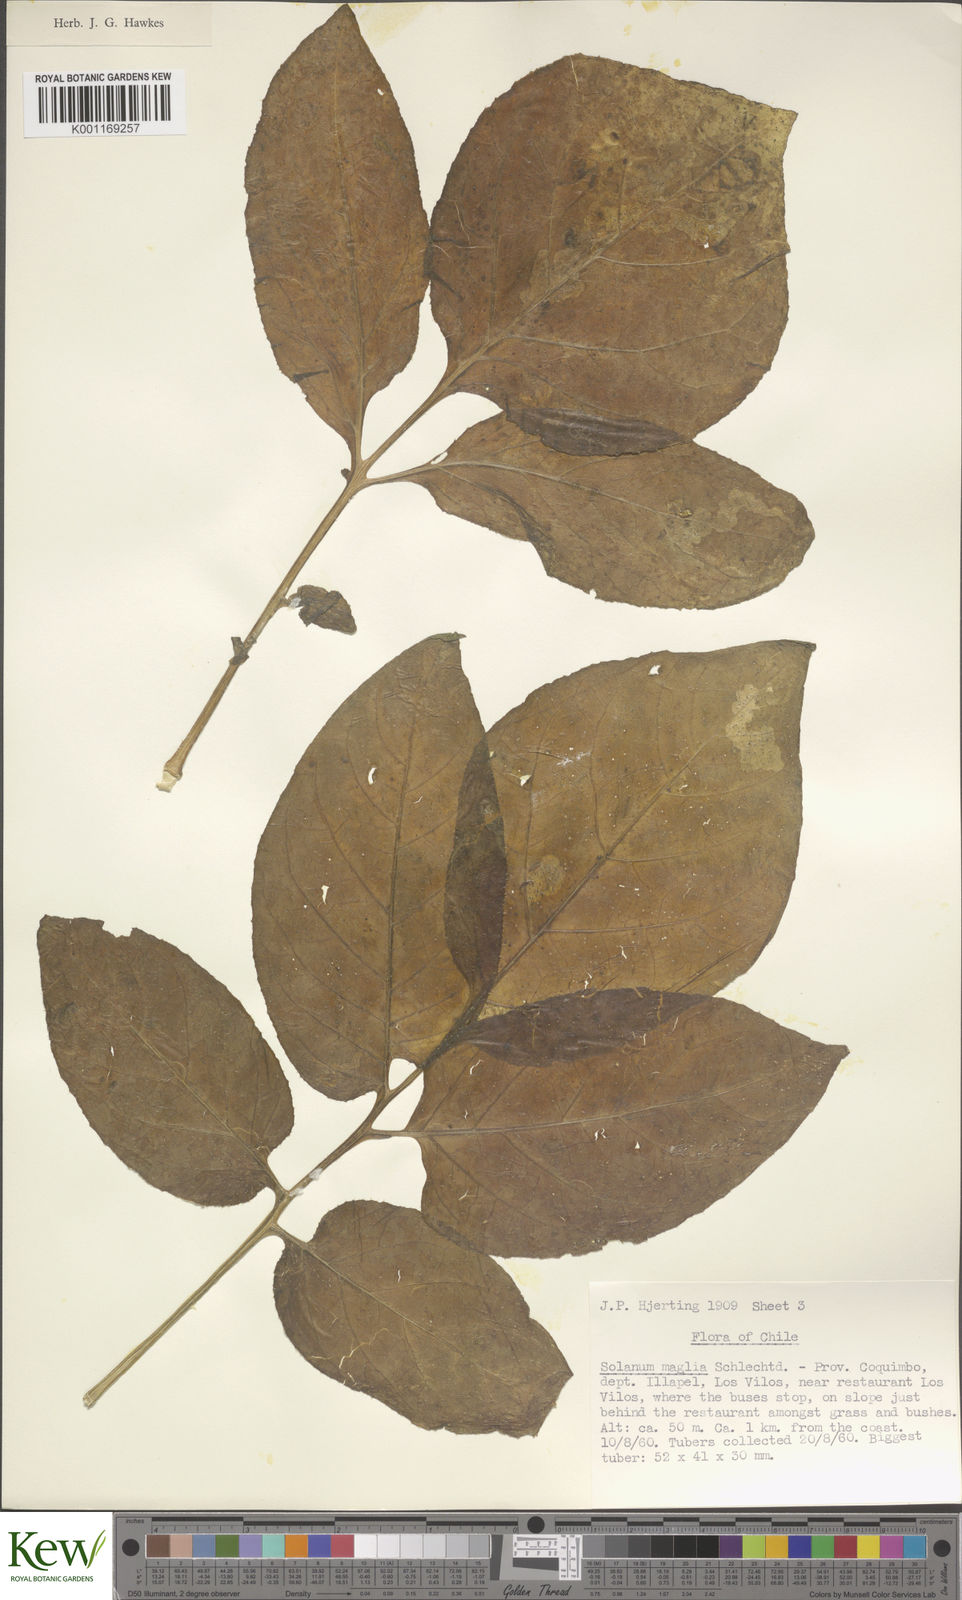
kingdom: Plantae
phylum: Tracheophyta
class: Magnoliopsida
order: Solanales
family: Solanaceae
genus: Solanum
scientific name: Solanum maglia
